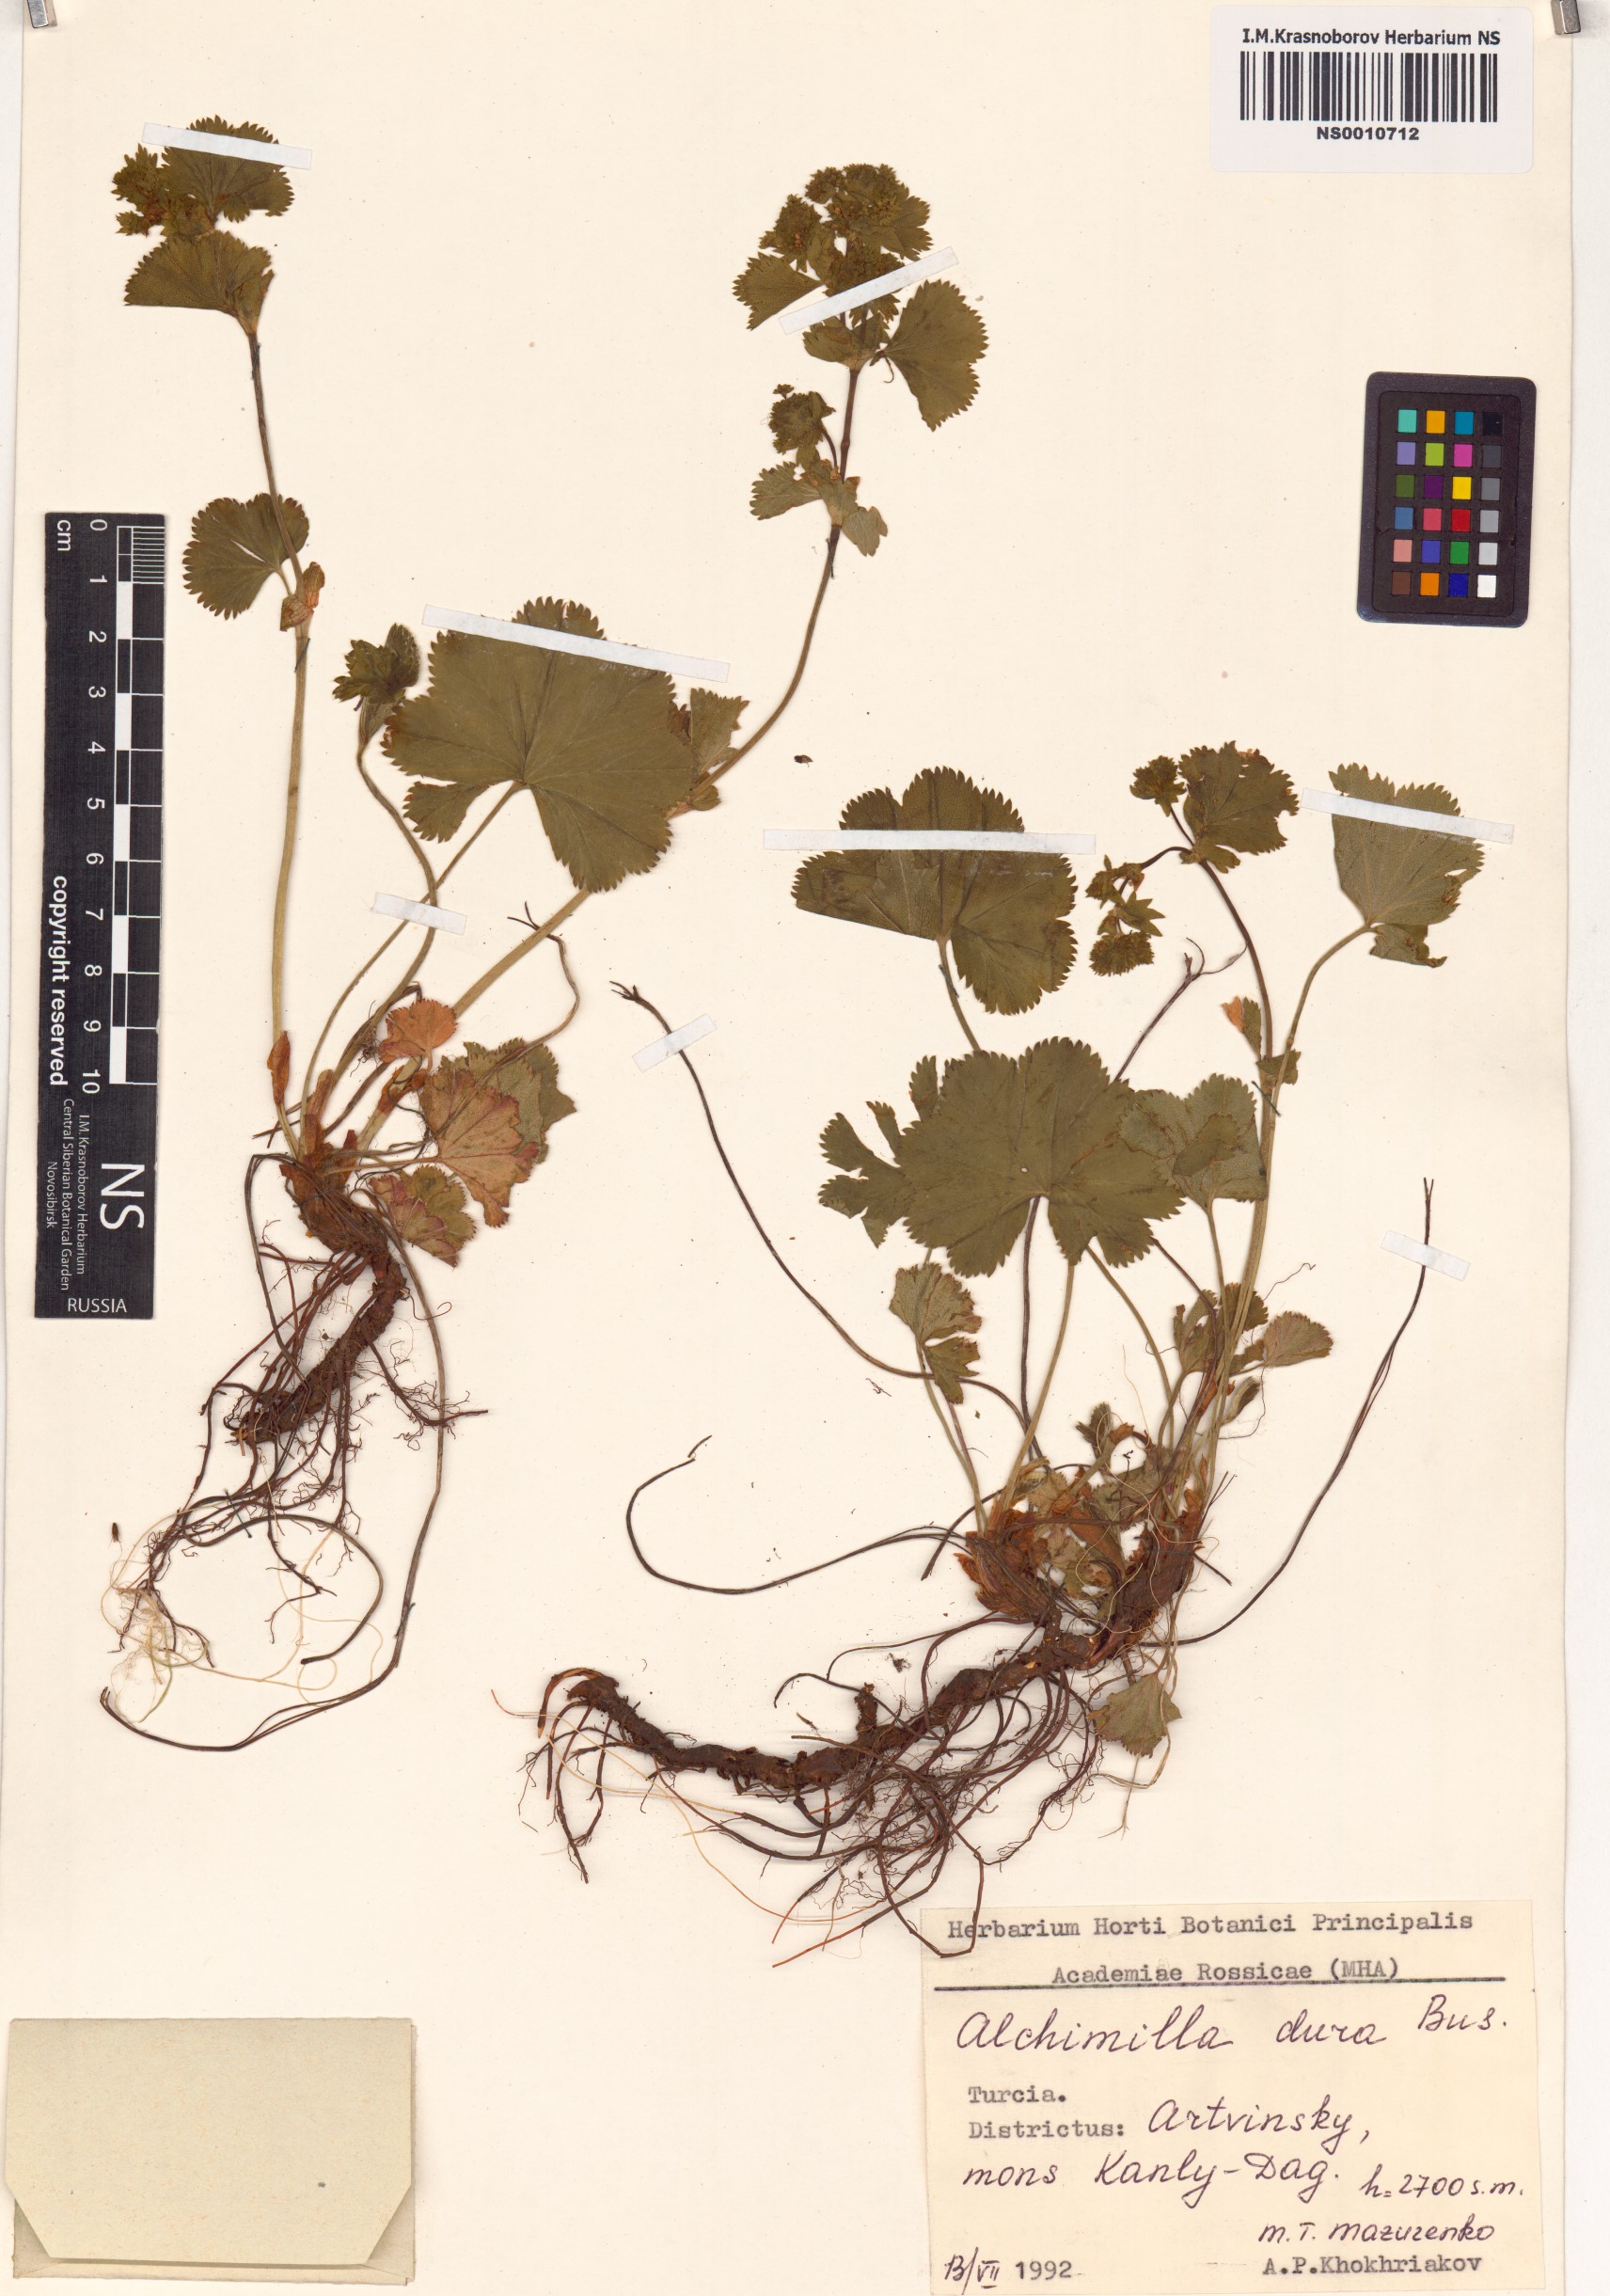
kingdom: Plantae
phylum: Tracheophyta
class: Magnoliopsida
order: Rosales
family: Rosaceae
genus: Alchemilla
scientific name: Alchemilla dura
